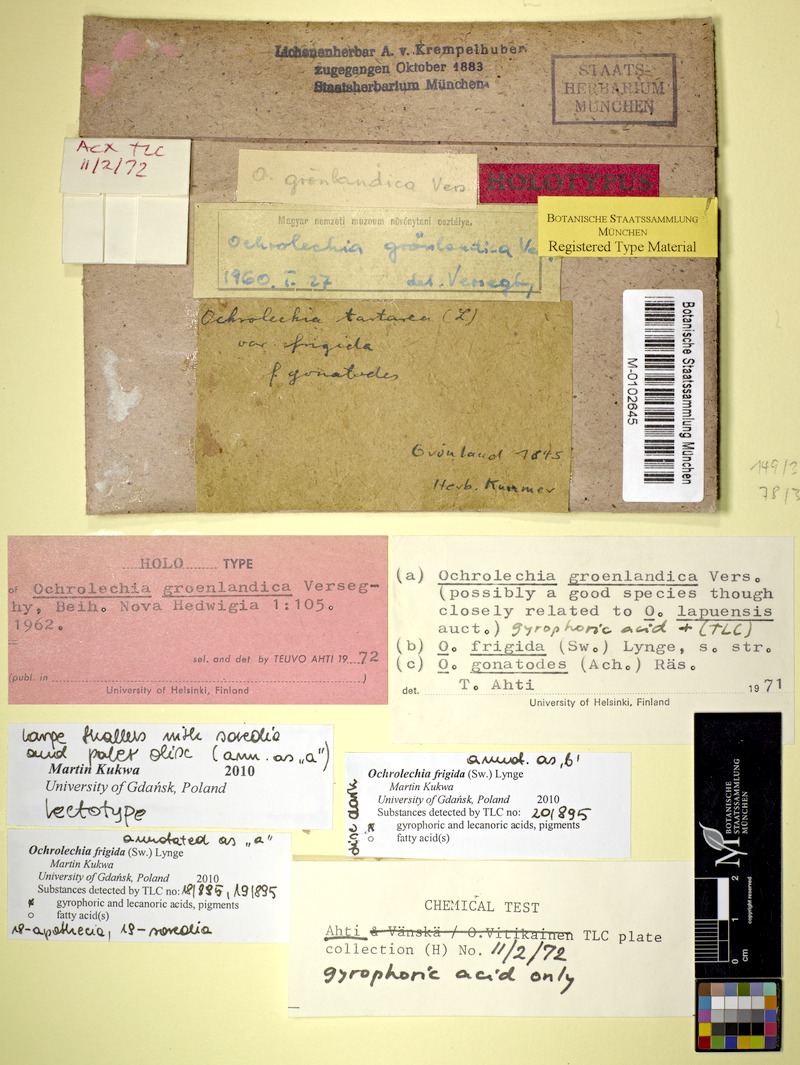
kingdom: Fungi
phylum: Ascomycota
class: Lecanoromycetes
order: Pertusariales
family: Ochrolechiaceae
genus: Ochrolechia
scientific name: Ochrolechia frigida
